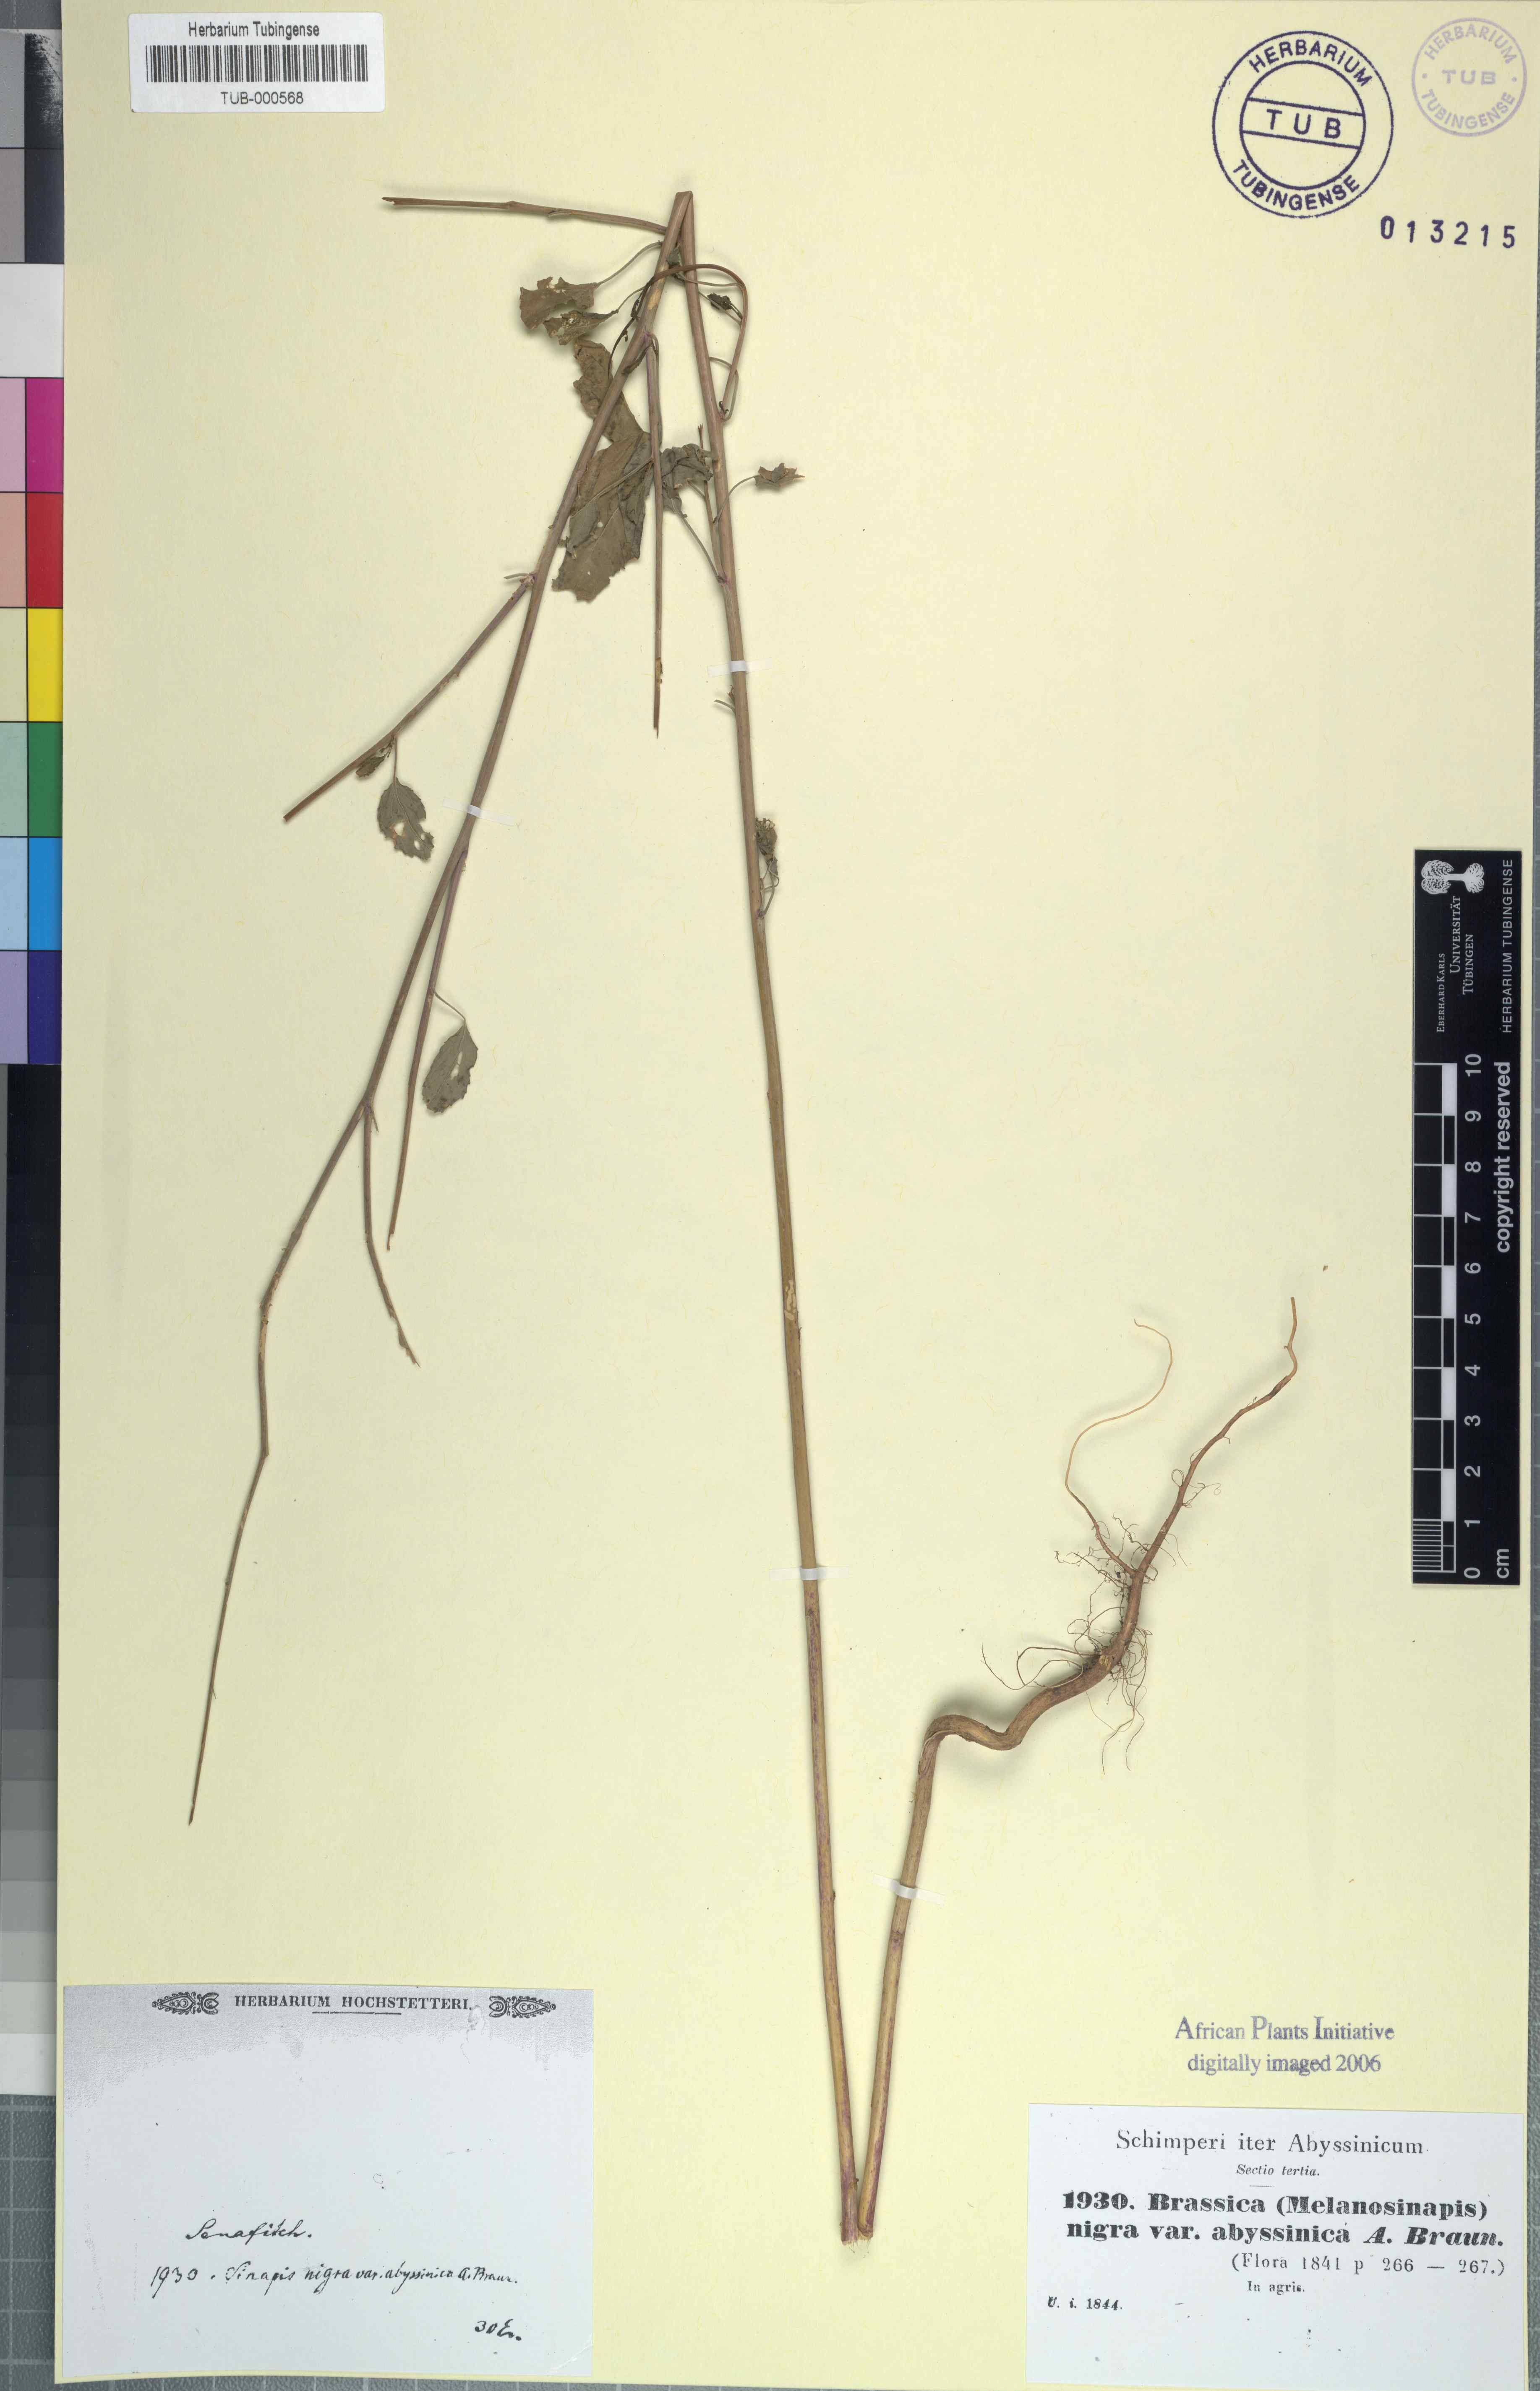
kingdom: Plantae
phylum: Tracheophyta
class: Magnoliopsida
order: Brassicales
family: Brassicaceae
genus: Brassica
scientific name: Brassica nigra
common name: Black mustard
